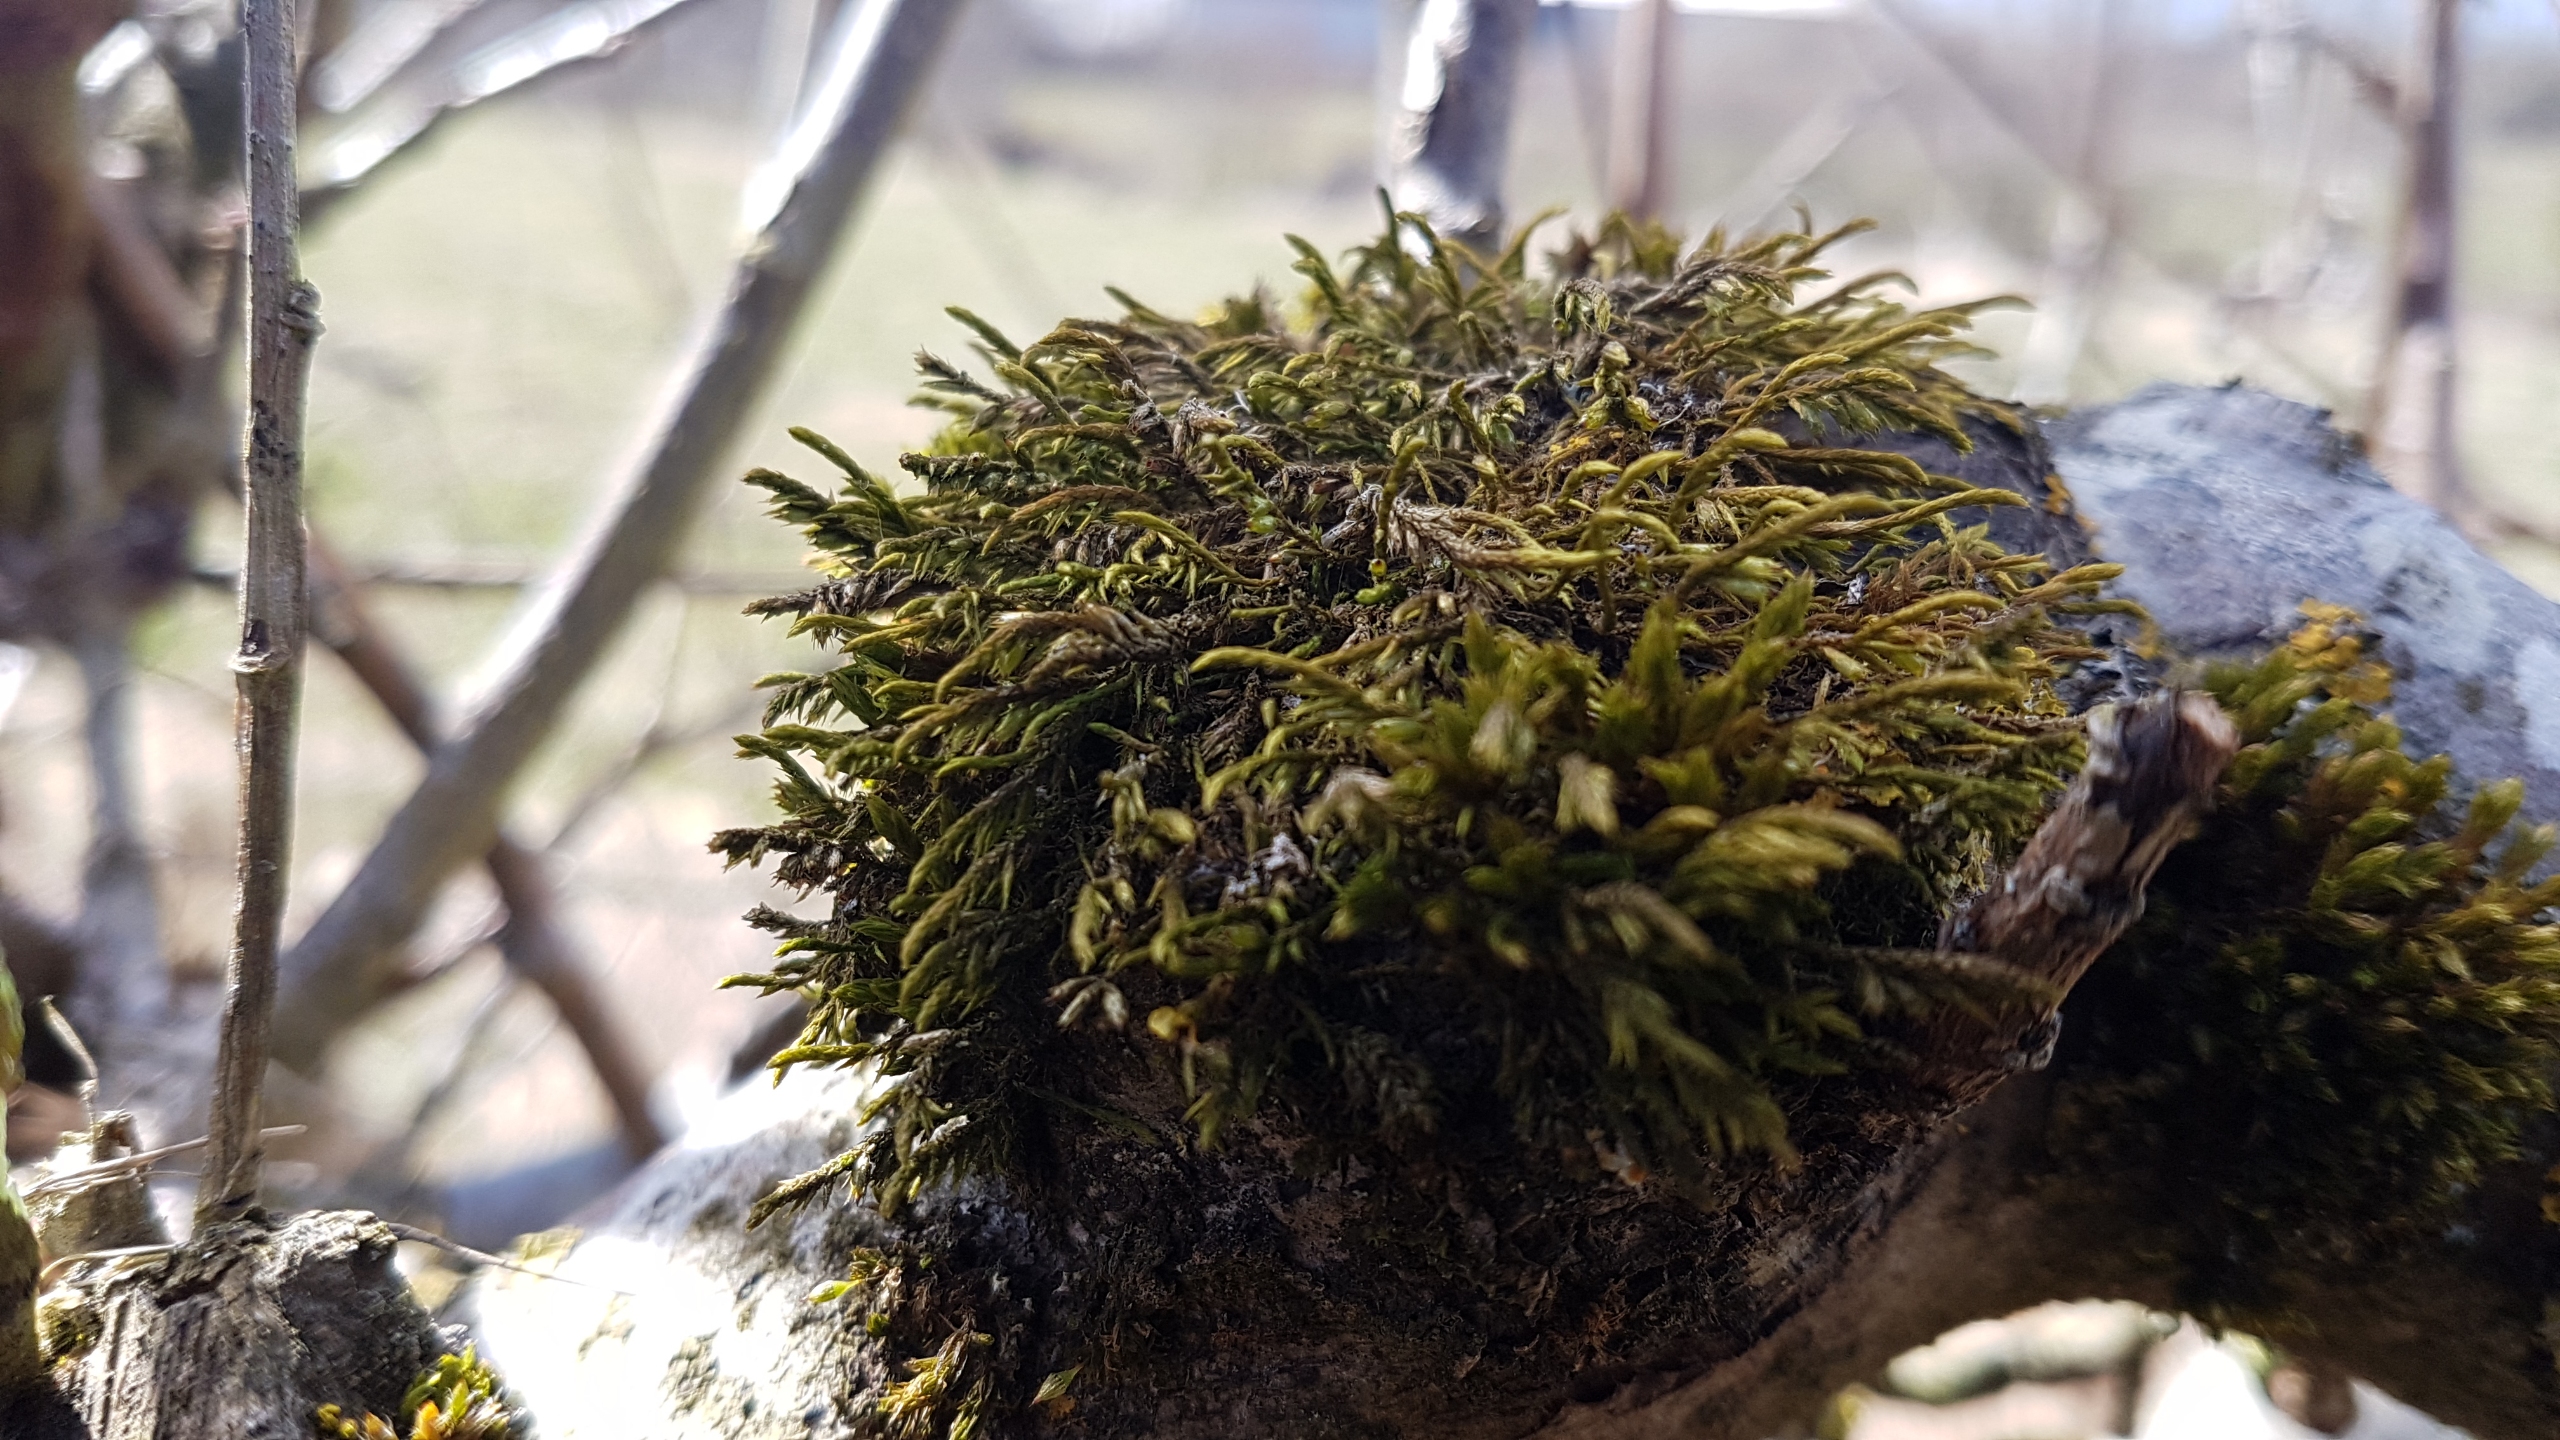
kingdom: Plantae
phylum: Bryophyta
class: Bryopsida
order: Hypnales
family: Cryphaeaceae
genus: Cryphaea
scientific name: Cryphaea heteromalla
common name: Bark-dækmos
